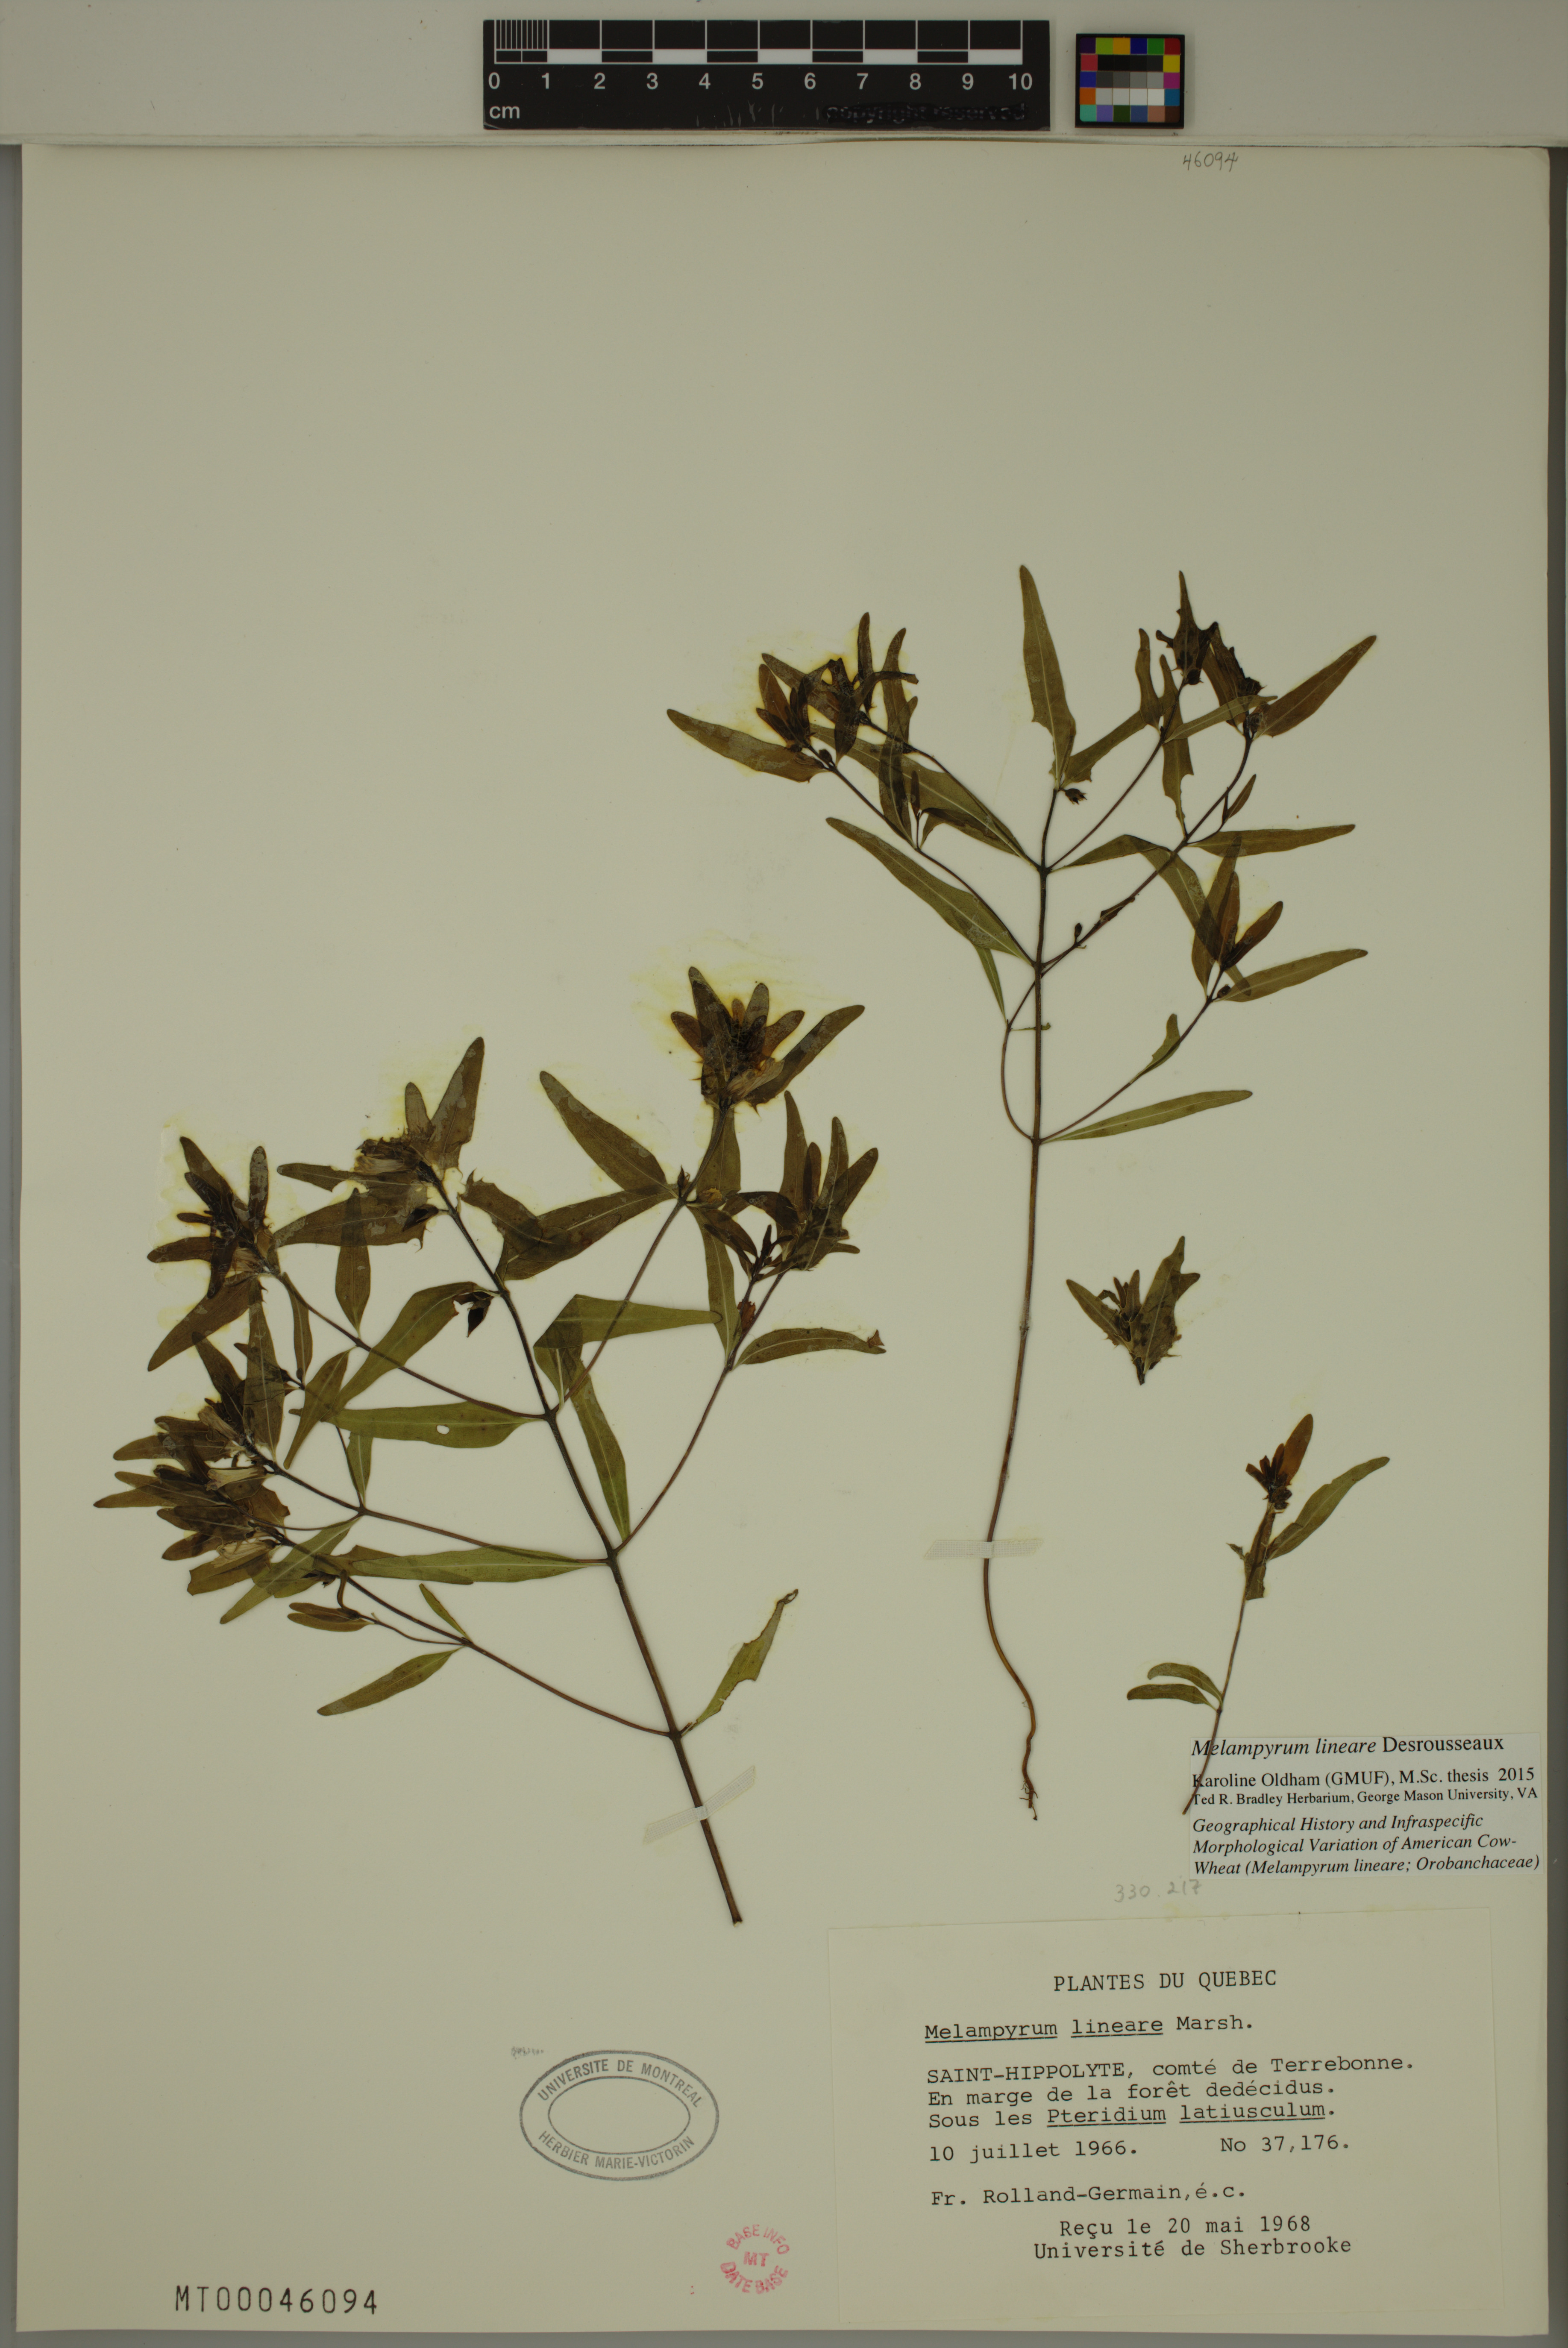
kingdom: Plantae
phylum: Tracheophyta
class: Magnoliopsida
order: Lamiales
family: Orobanchaceae
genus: Melampyrum
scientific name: Melampyrum lineare
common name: American cow-wheat
